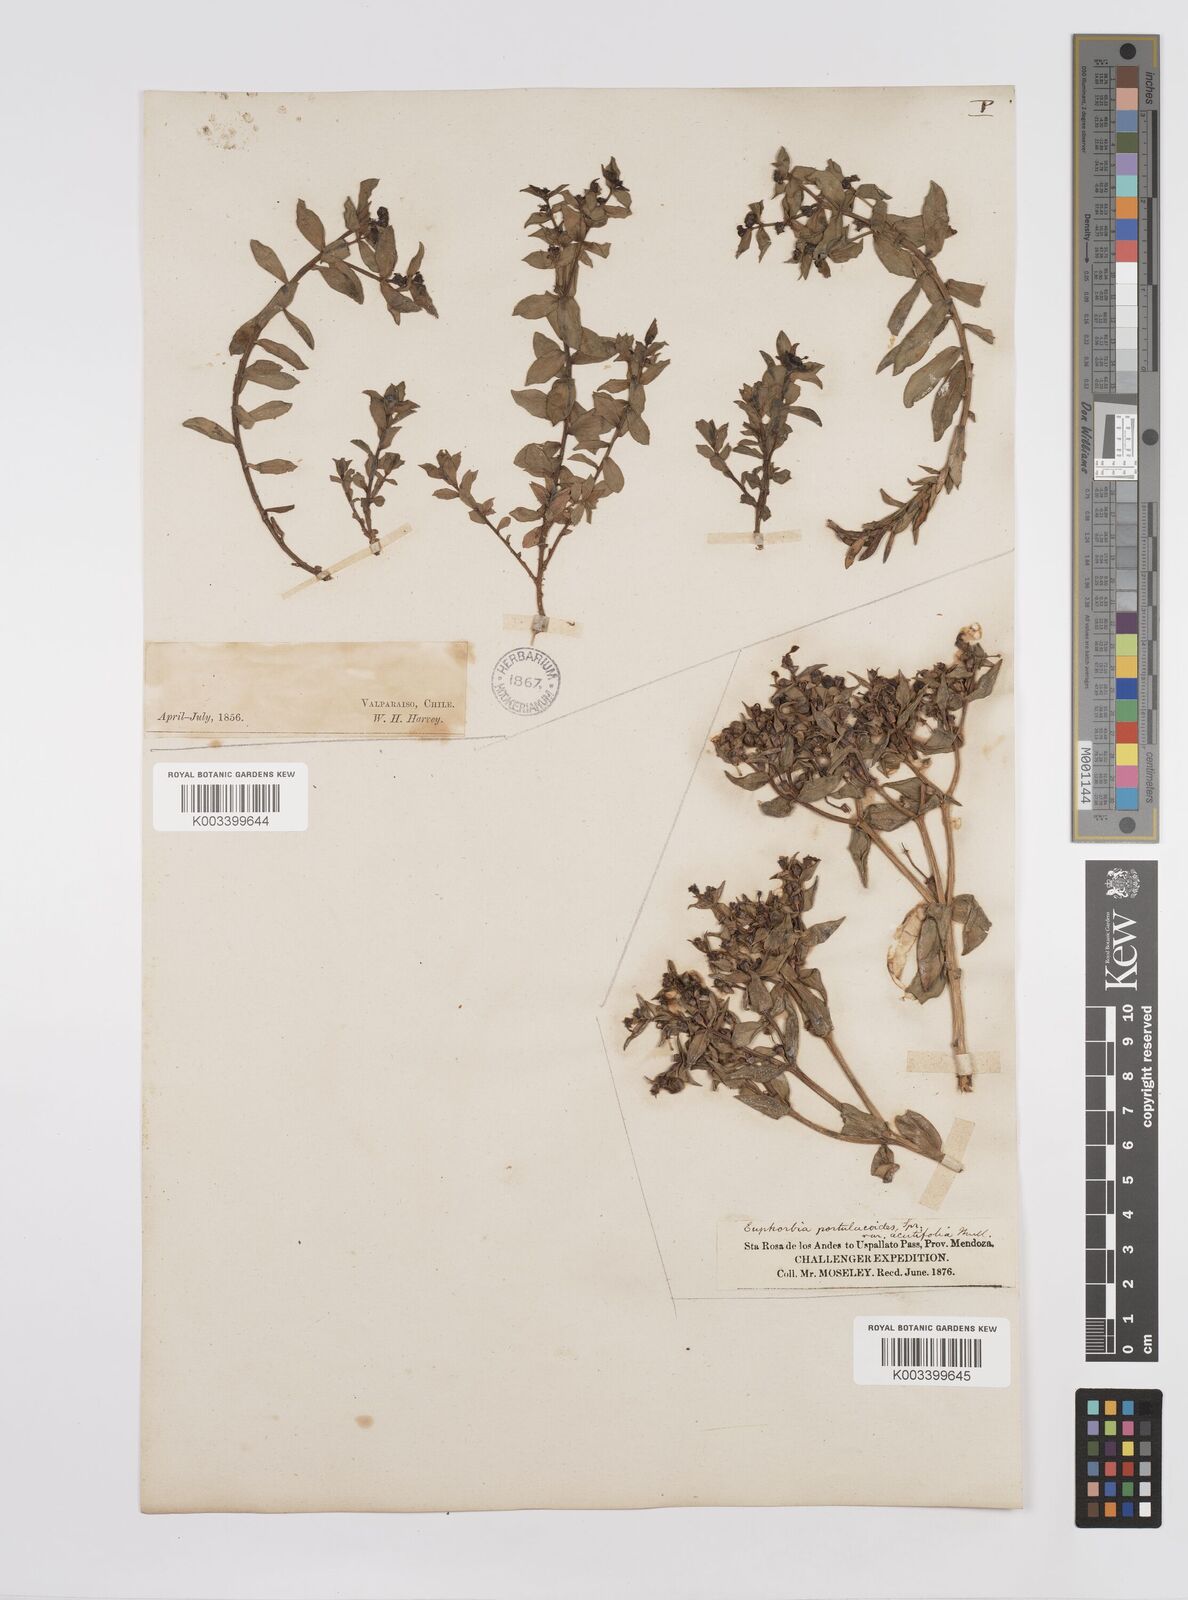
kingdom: Plantae
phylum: Tracheophyta
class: Magnoliopsida
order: Malpighiales
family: Euphorbiaceae
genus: Euphorbia
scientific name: Euphorbia portulacoides
